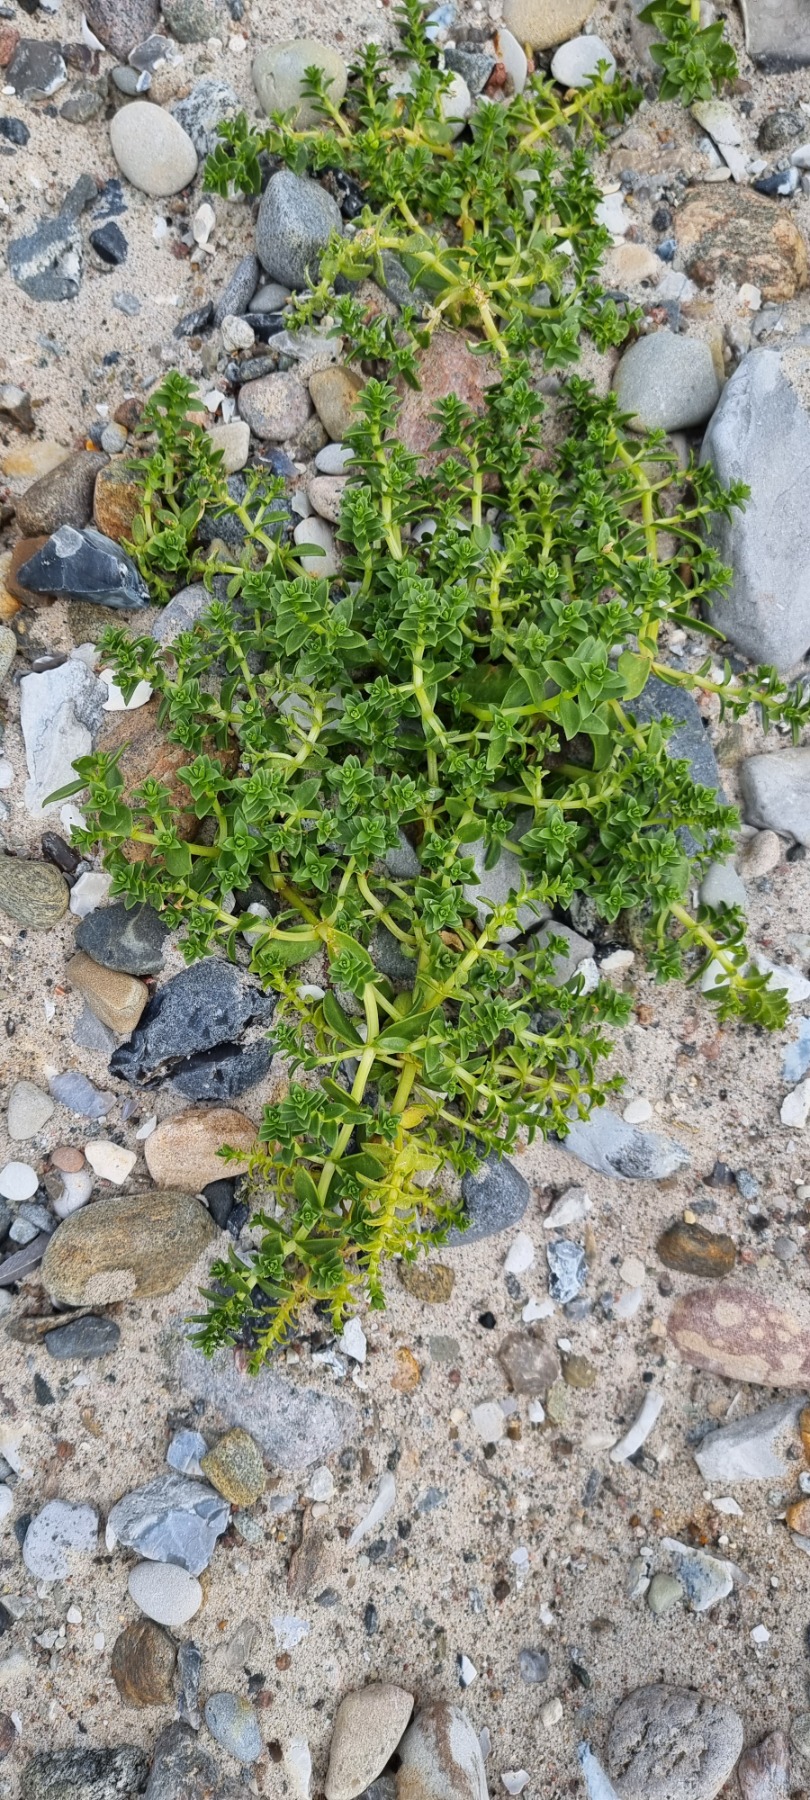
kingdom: Plantae
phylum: Tracheophyta
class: Magnoliopsida
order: Caryophyllales
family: Caryophyllaceae
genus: Honckenya
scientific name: Honckenya peploides
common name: Strandarve
